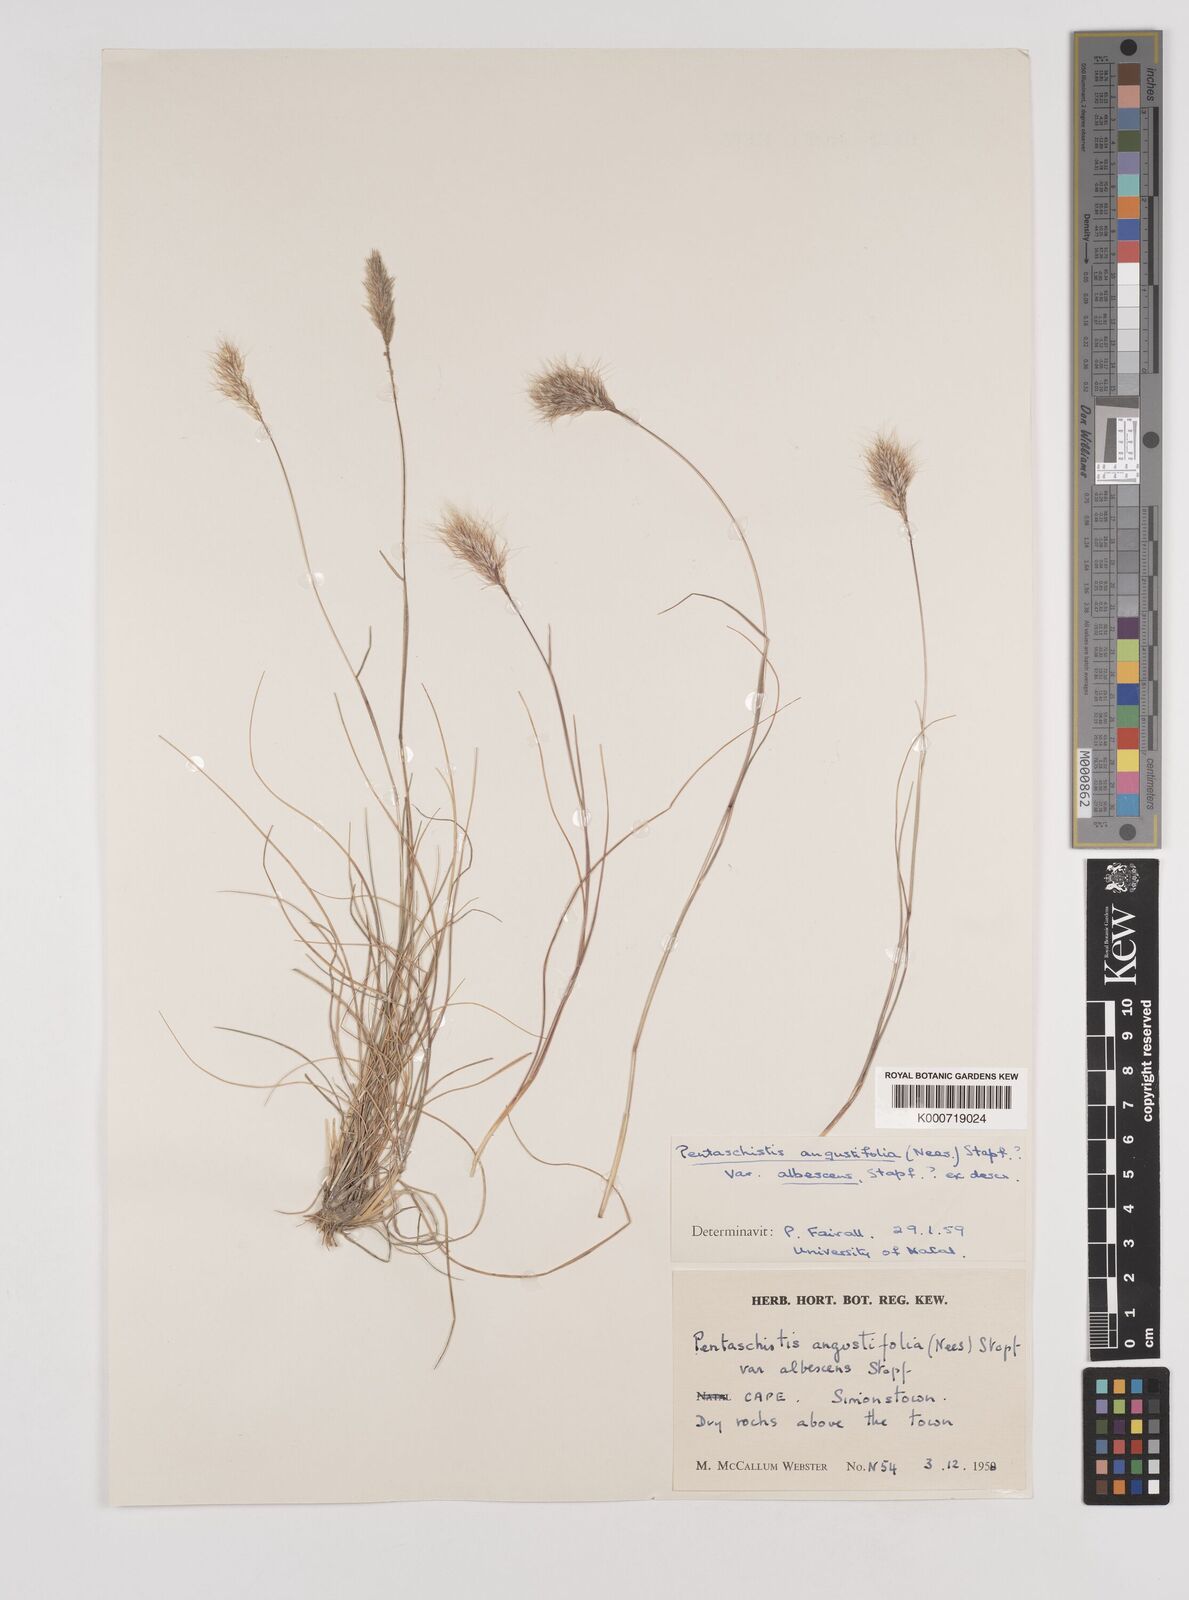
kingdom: Plantae
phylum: Tracheophyta
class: Liliopsida
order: Poales
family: Poaceae
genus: Pentameris
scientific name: Pentameris pallida
